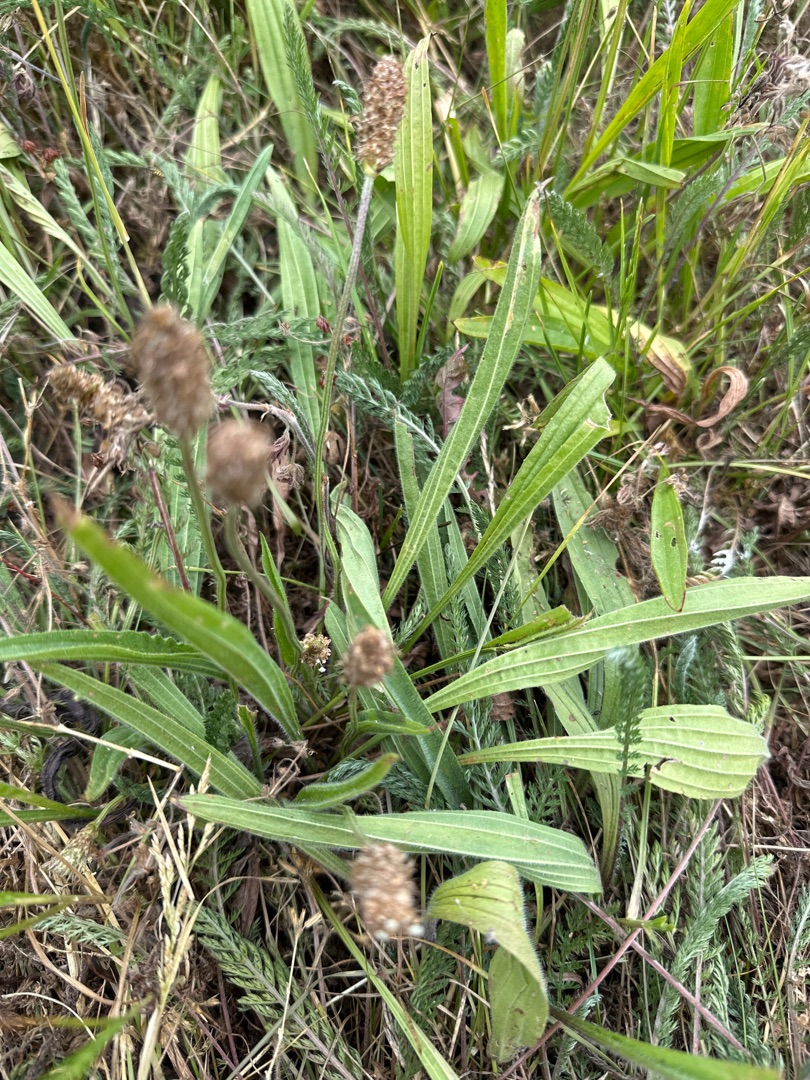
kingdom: Plantae
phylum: Tracheophyta
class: Magnoliopsida
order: Lamiales
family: Plantaginaceae
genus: Plantago
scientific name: Plantago lanceolata
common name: Lancet-vejbred
